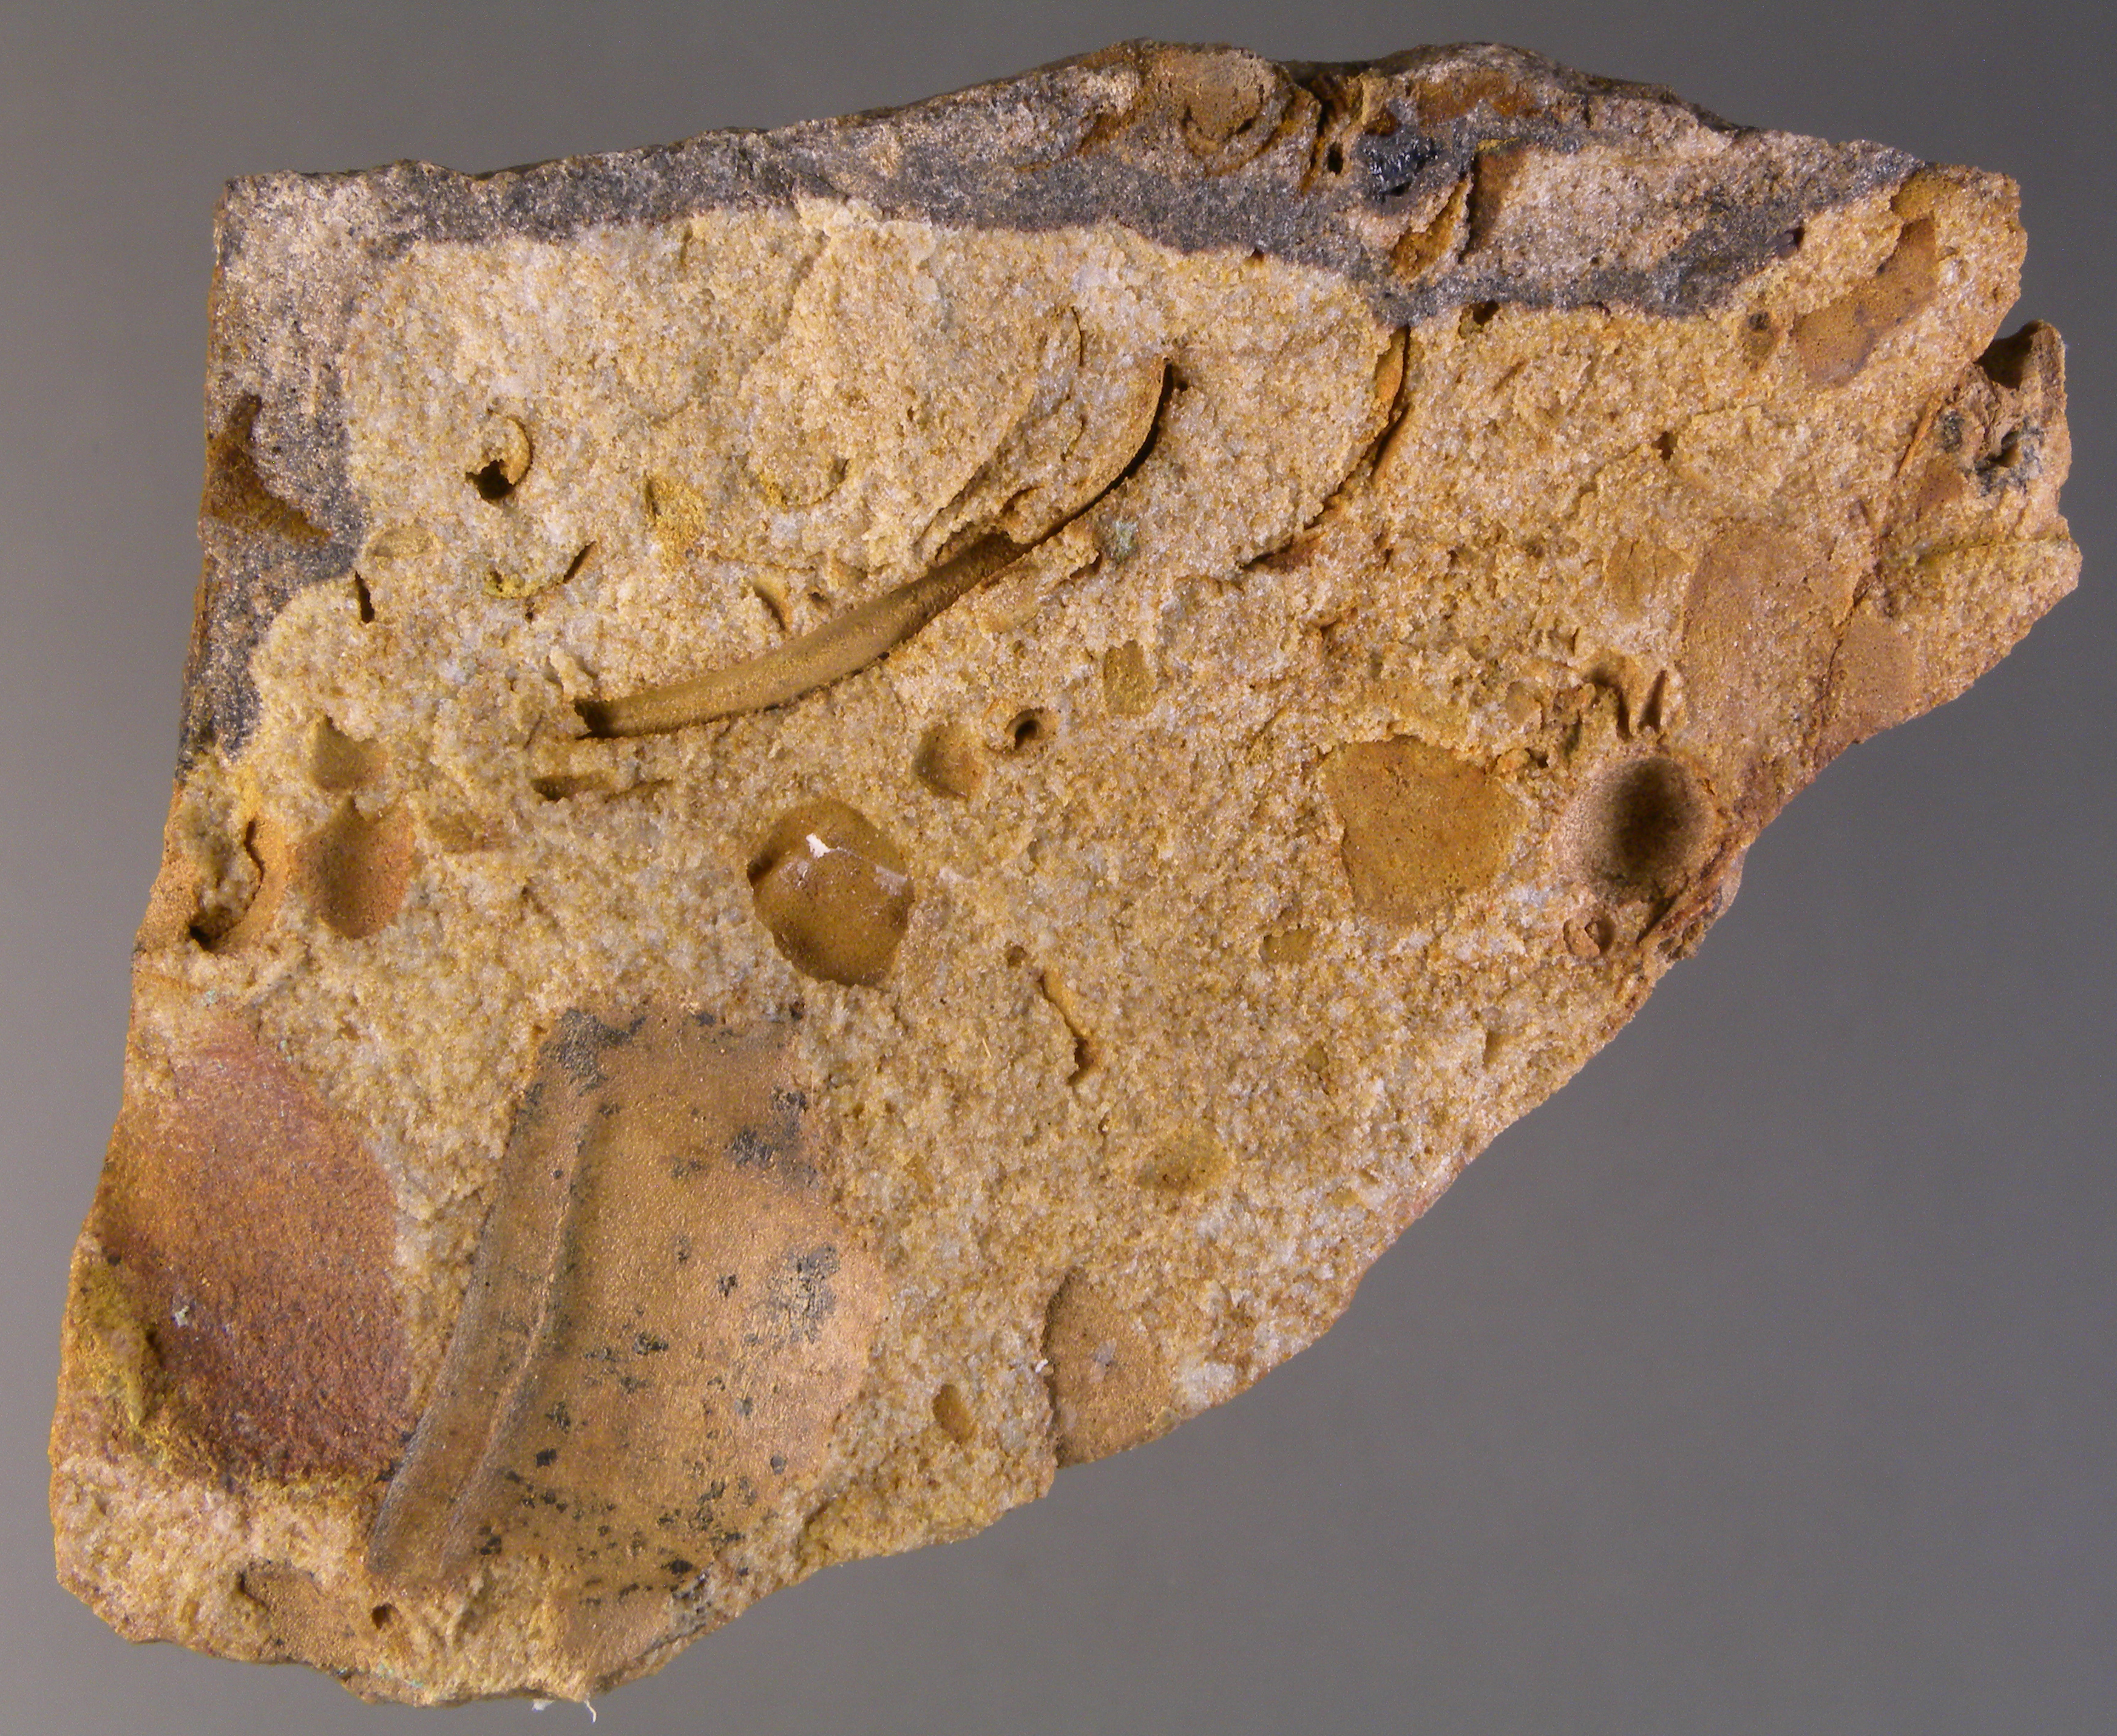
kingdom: Animalia
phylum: Arthropoda
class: Trilobita
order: Phacopida
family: Homalonotidae
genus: Digonus
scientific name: Digonus
